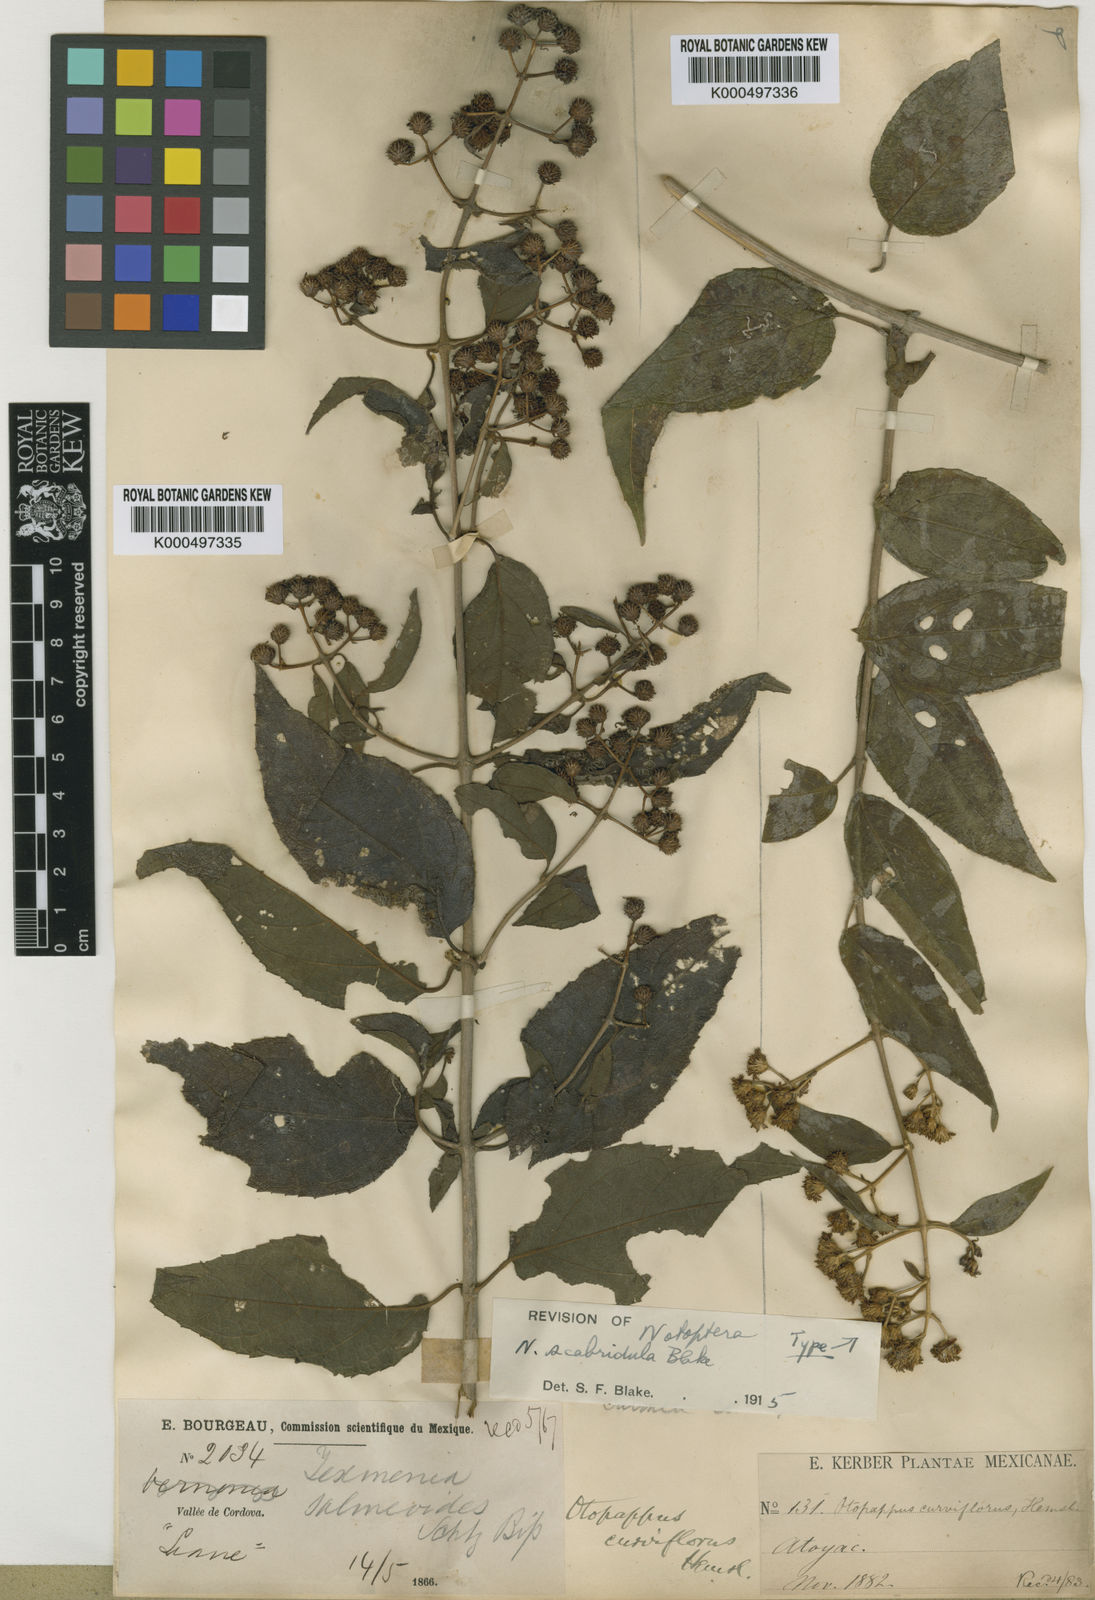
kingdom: Plantae
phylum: Tracheophyta
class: Magnoliopsida
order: Asterales
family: Asteraceae
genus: Otopappus
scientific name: Otopappus curviflorus
